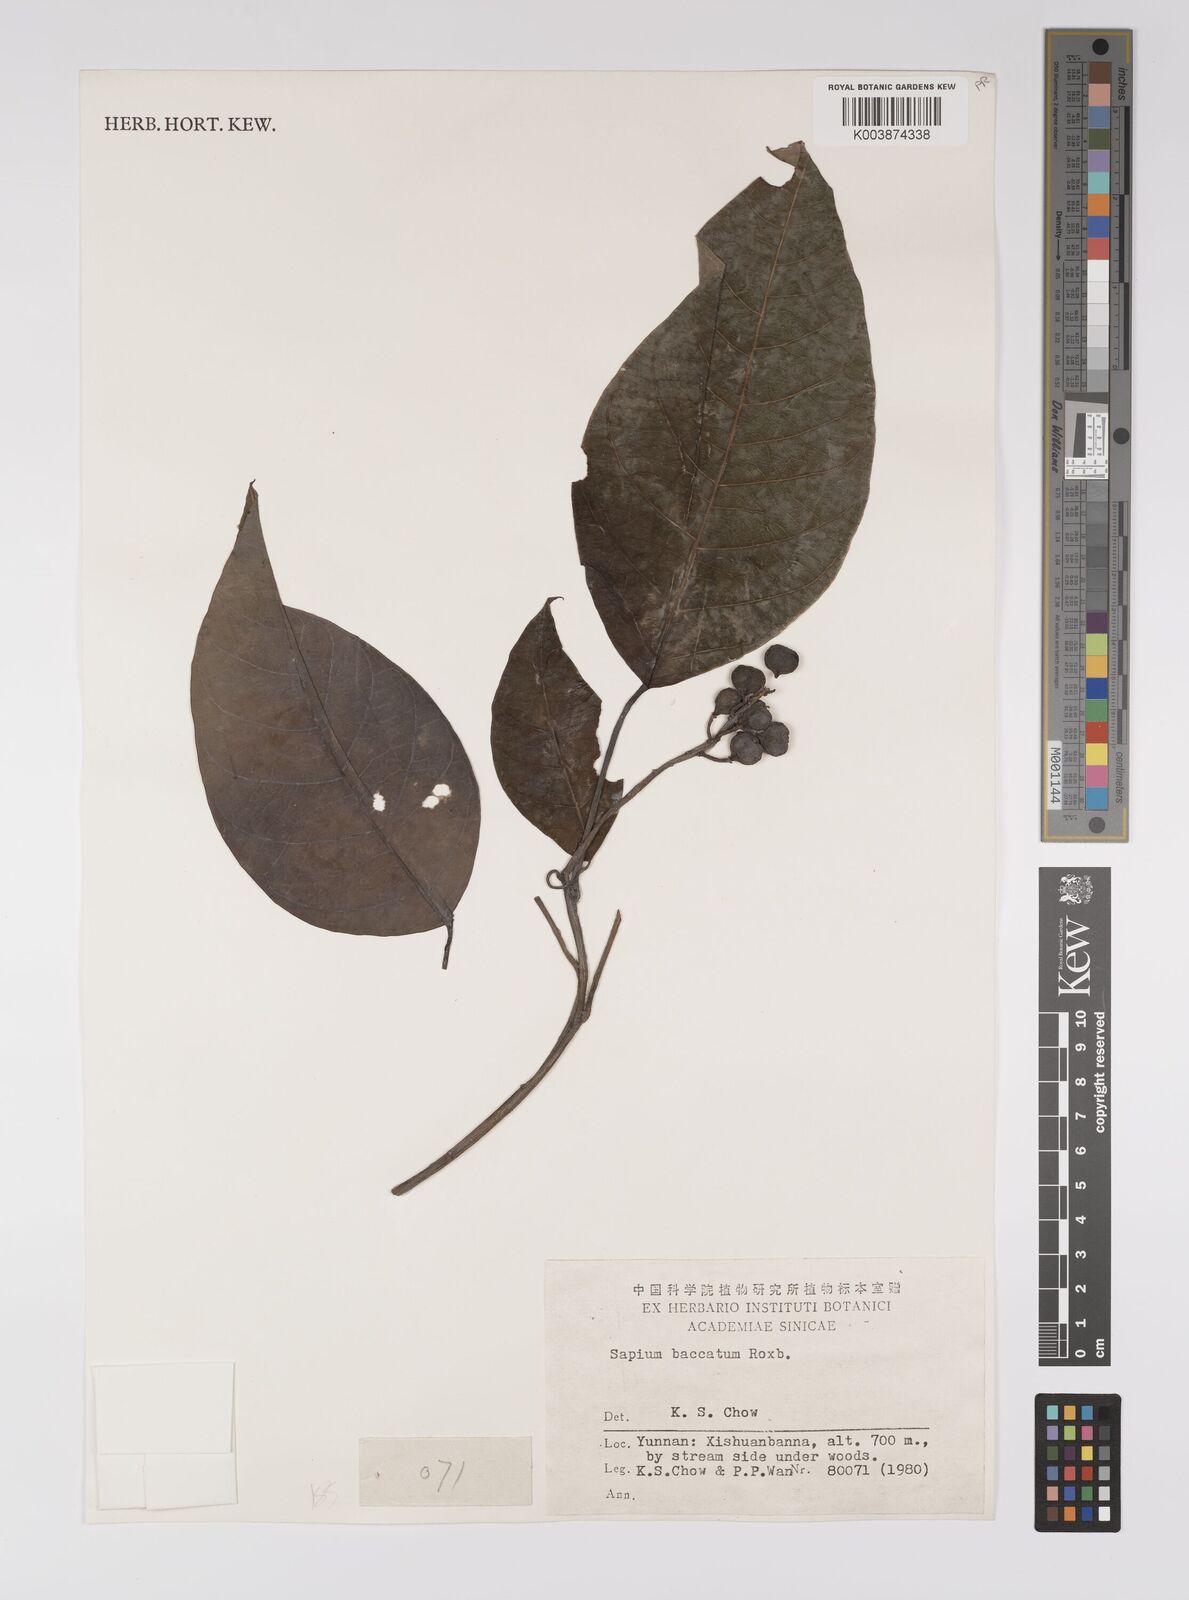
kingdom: Plantae
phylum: Tracheophyta
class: Magnoliopsida
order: Malpighiales
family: Euphorbiaceae
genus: Balakata
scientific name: Balakata baccata
